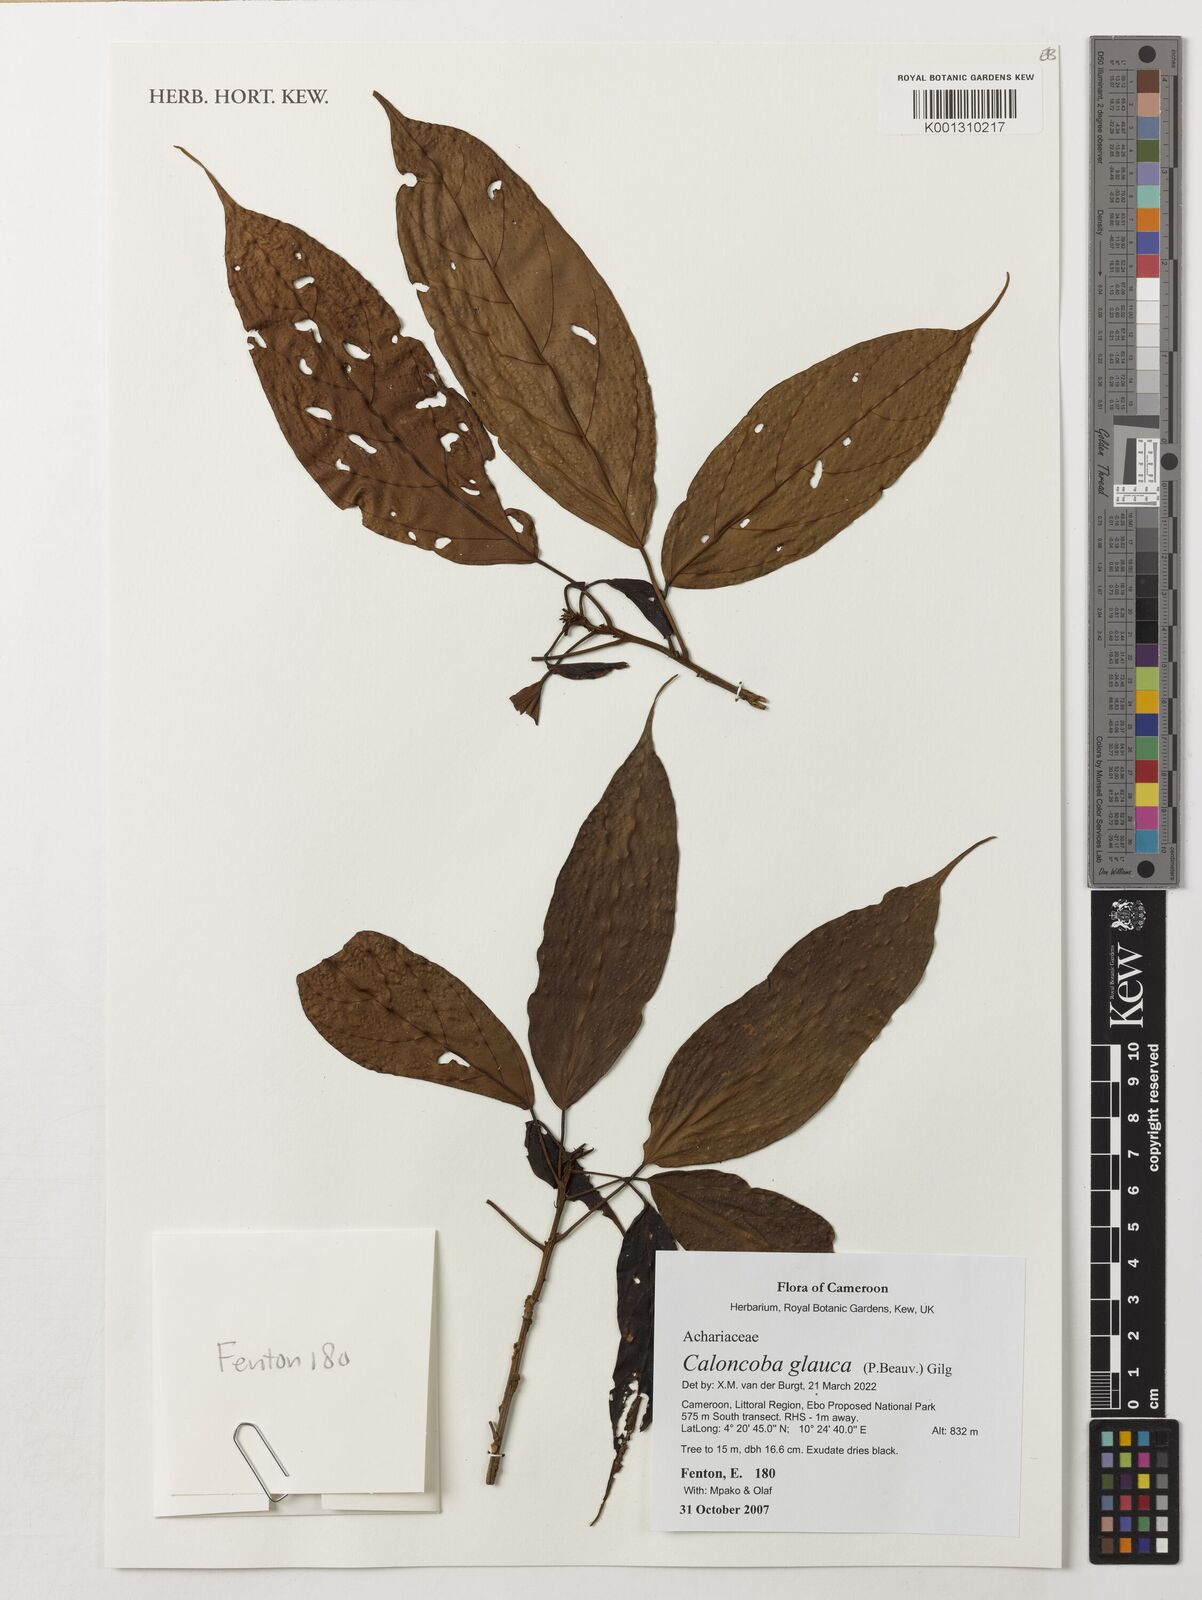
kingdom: Plantae
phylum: Tracheophyta
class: Magnoliopsida
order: Malpighiales
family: Achariaceae
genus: Caloncoba
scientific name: Caloncoba glauca
